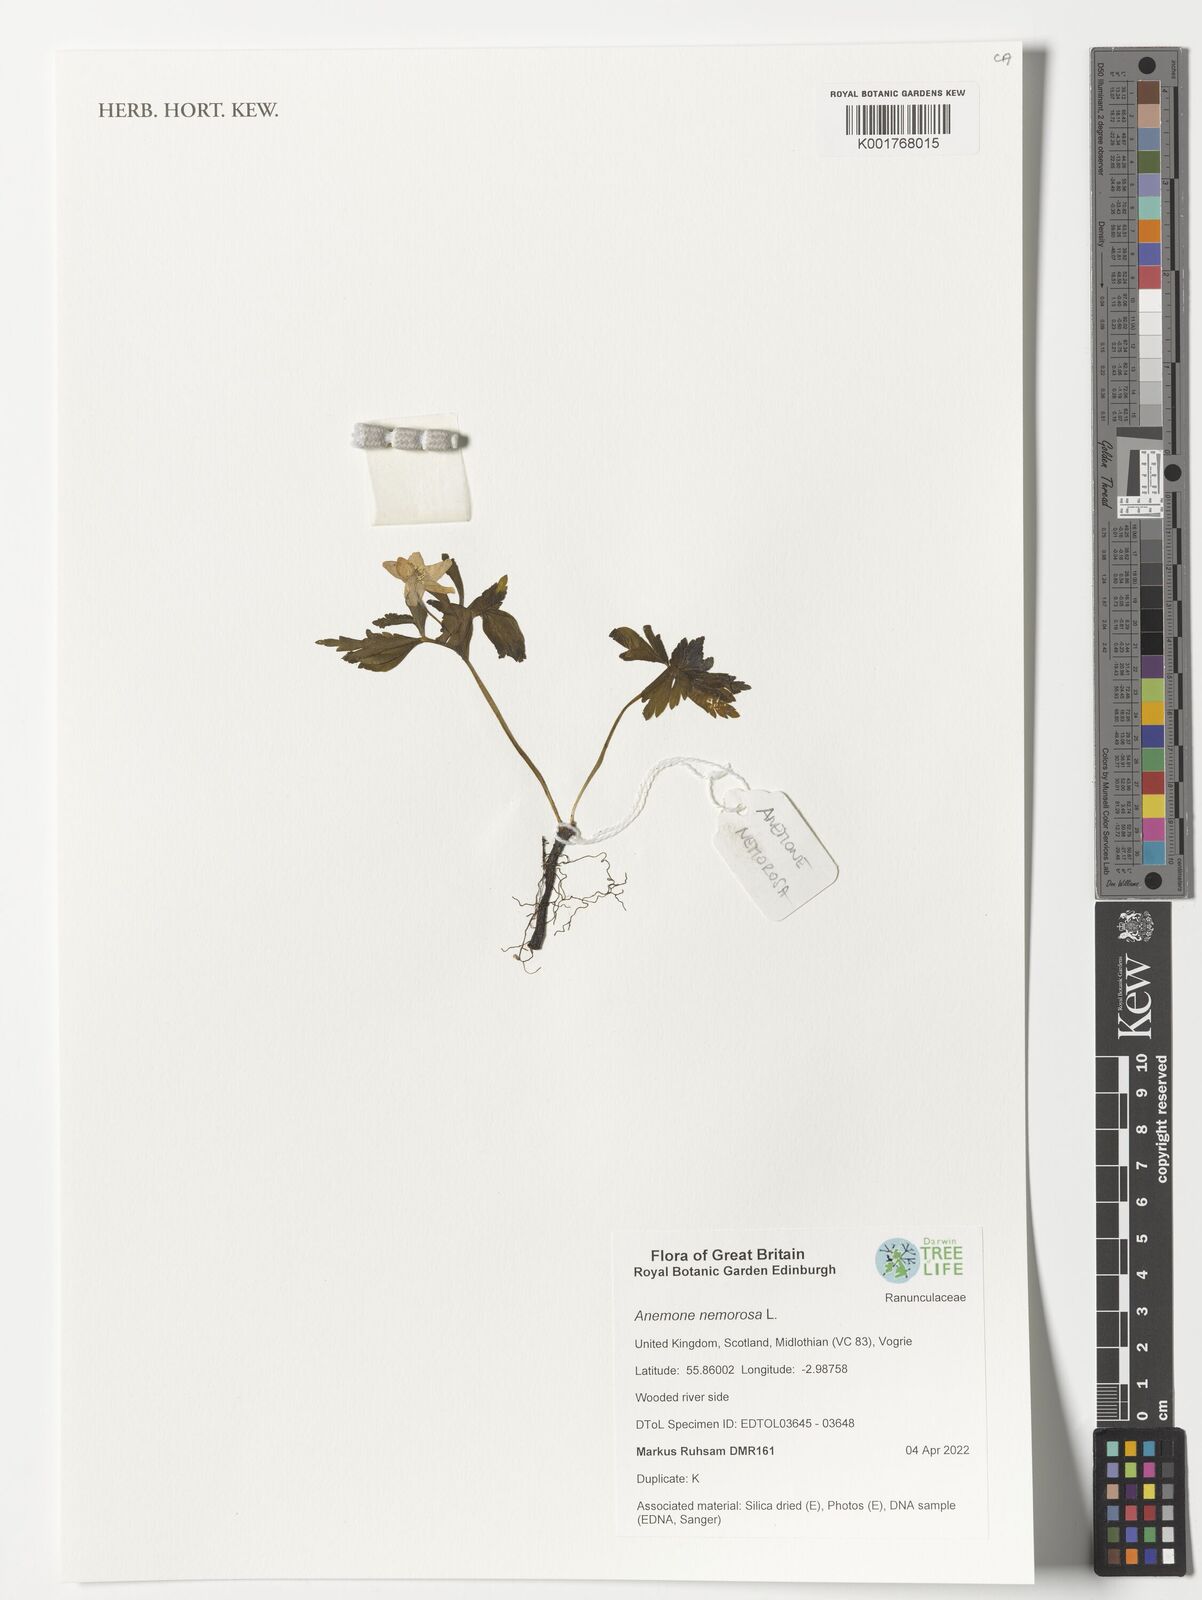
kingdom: Plantae
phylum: Tracheophyta
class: Magnoliopsida
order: Ranunculales
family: Ranunculaceae
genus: Anemone
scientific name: Anemone nemorosa
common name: Wood anemone
